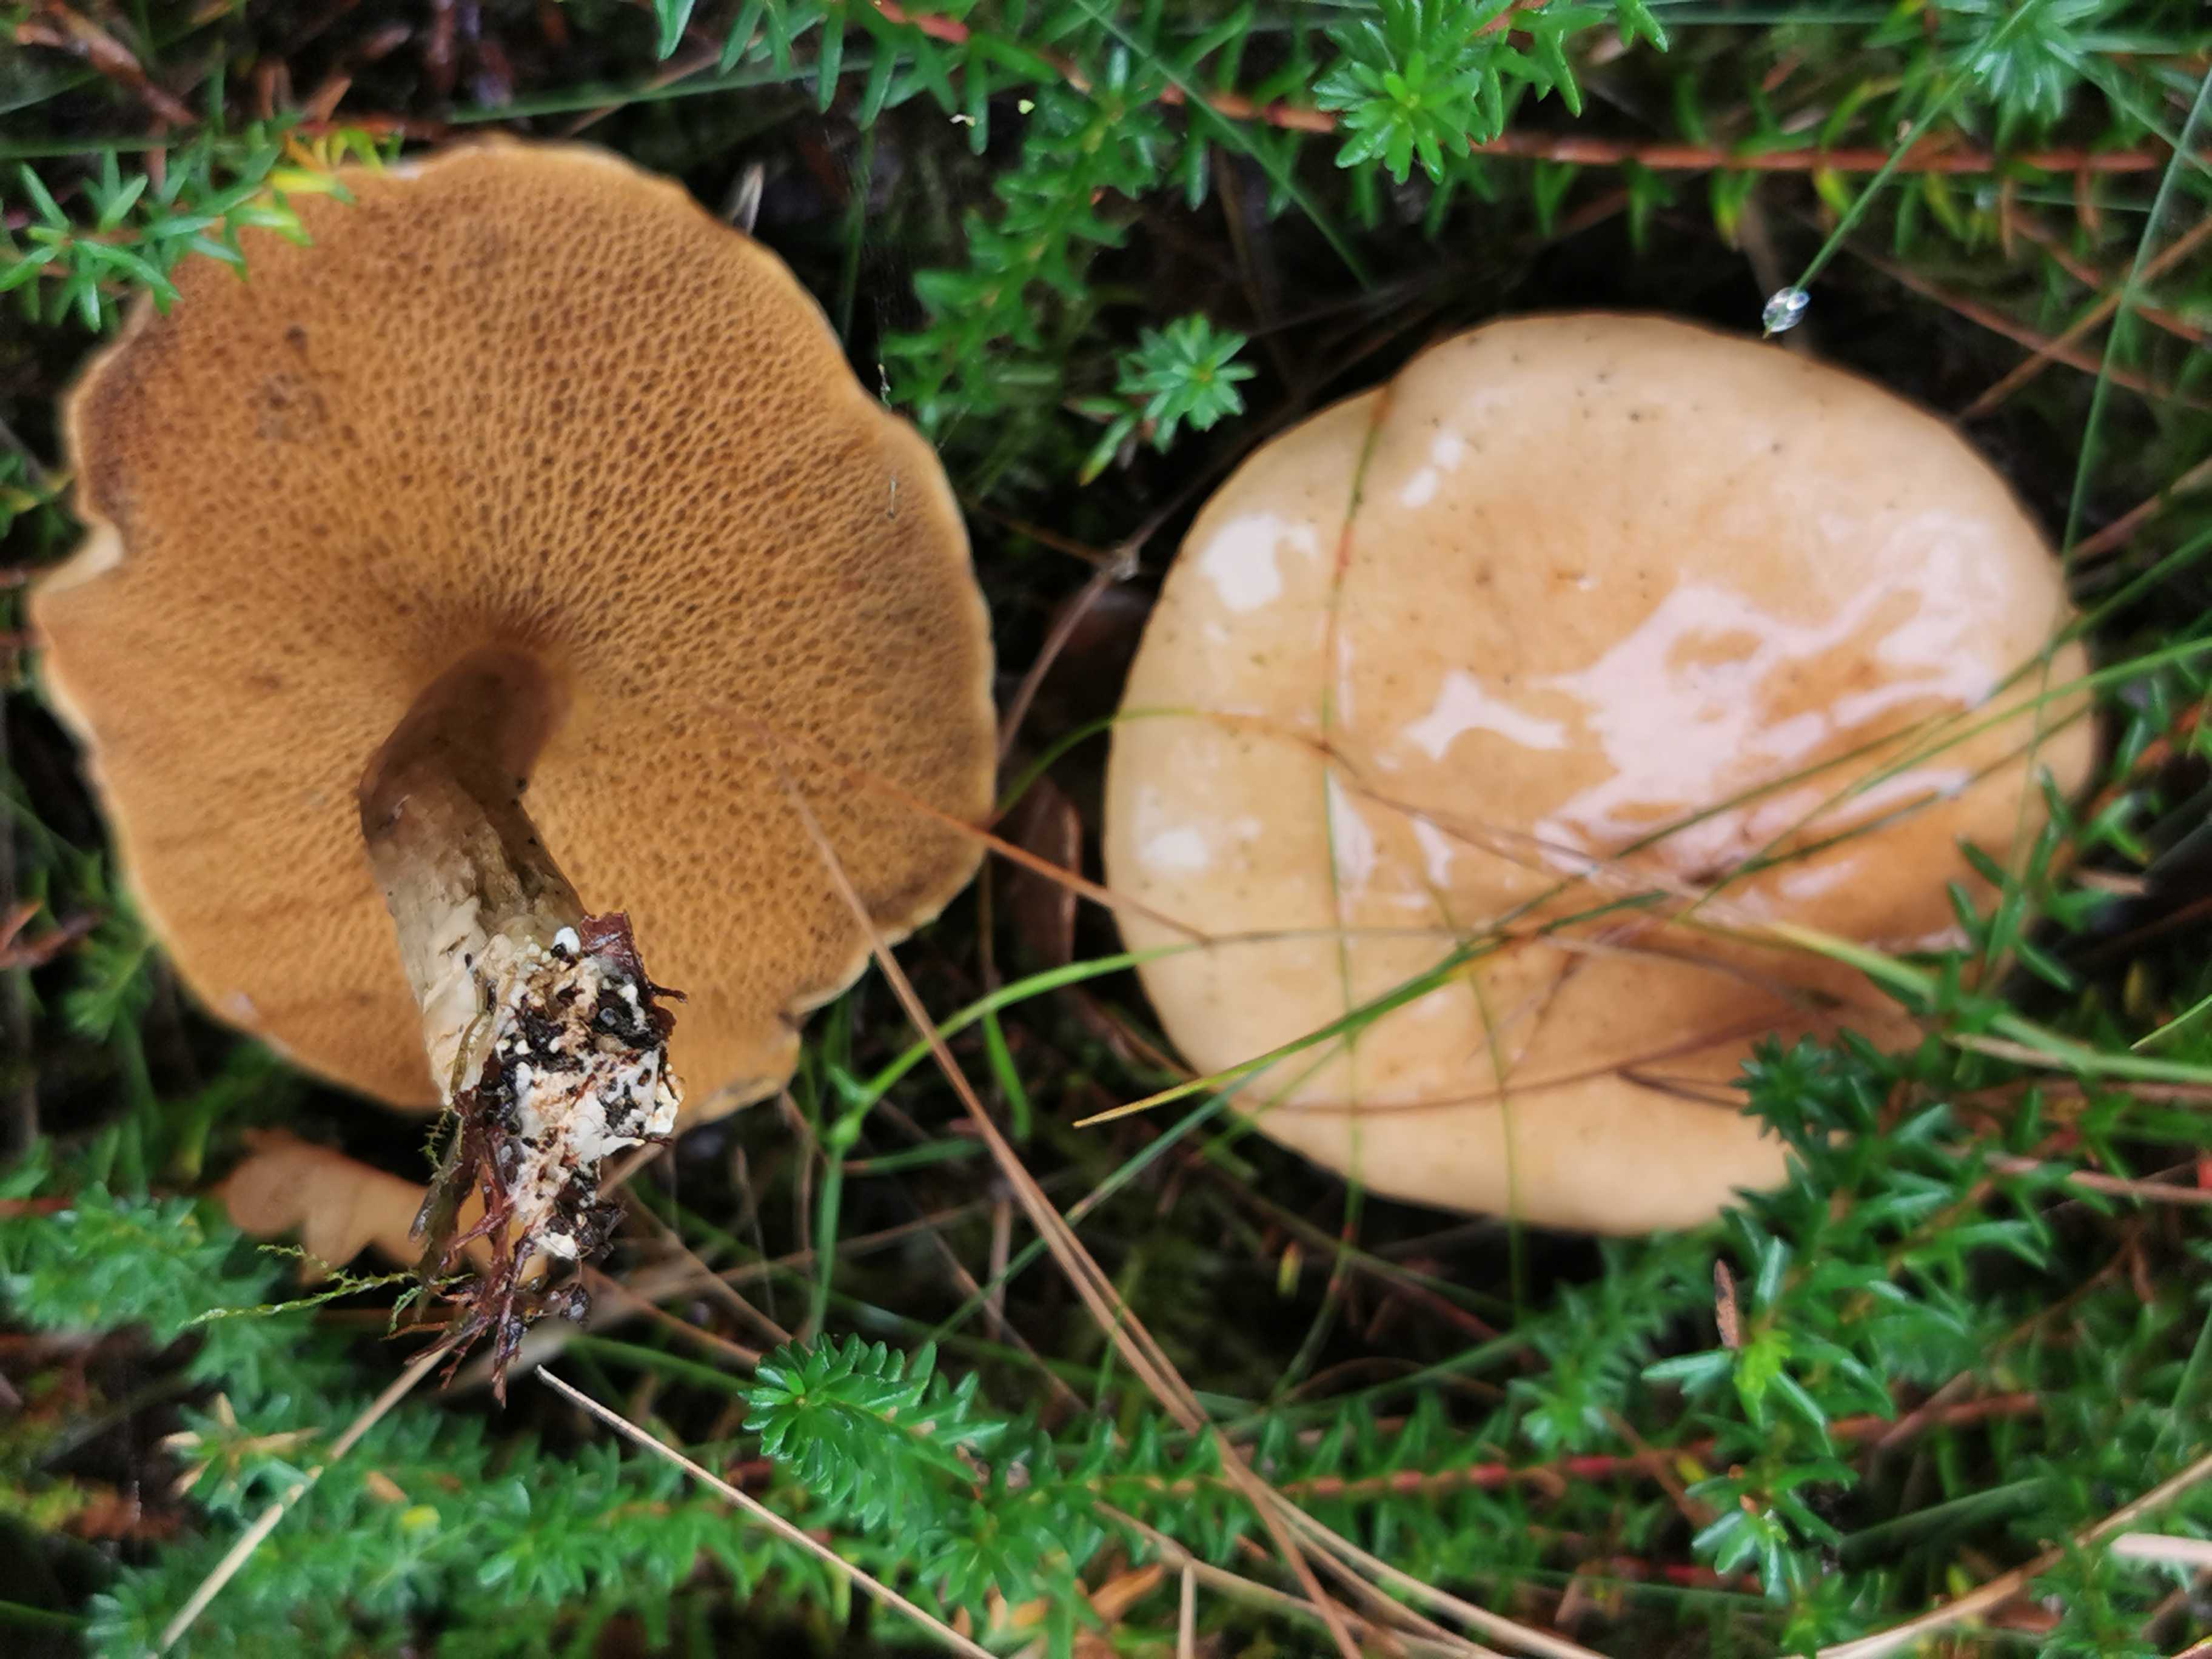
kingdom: Fungi
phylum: Basidiomycota
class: Agaricomycetes
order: Boletales
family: Suillaceae
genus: Suillus
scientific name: Suillus bovinus
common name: grovporet slimrørhat
